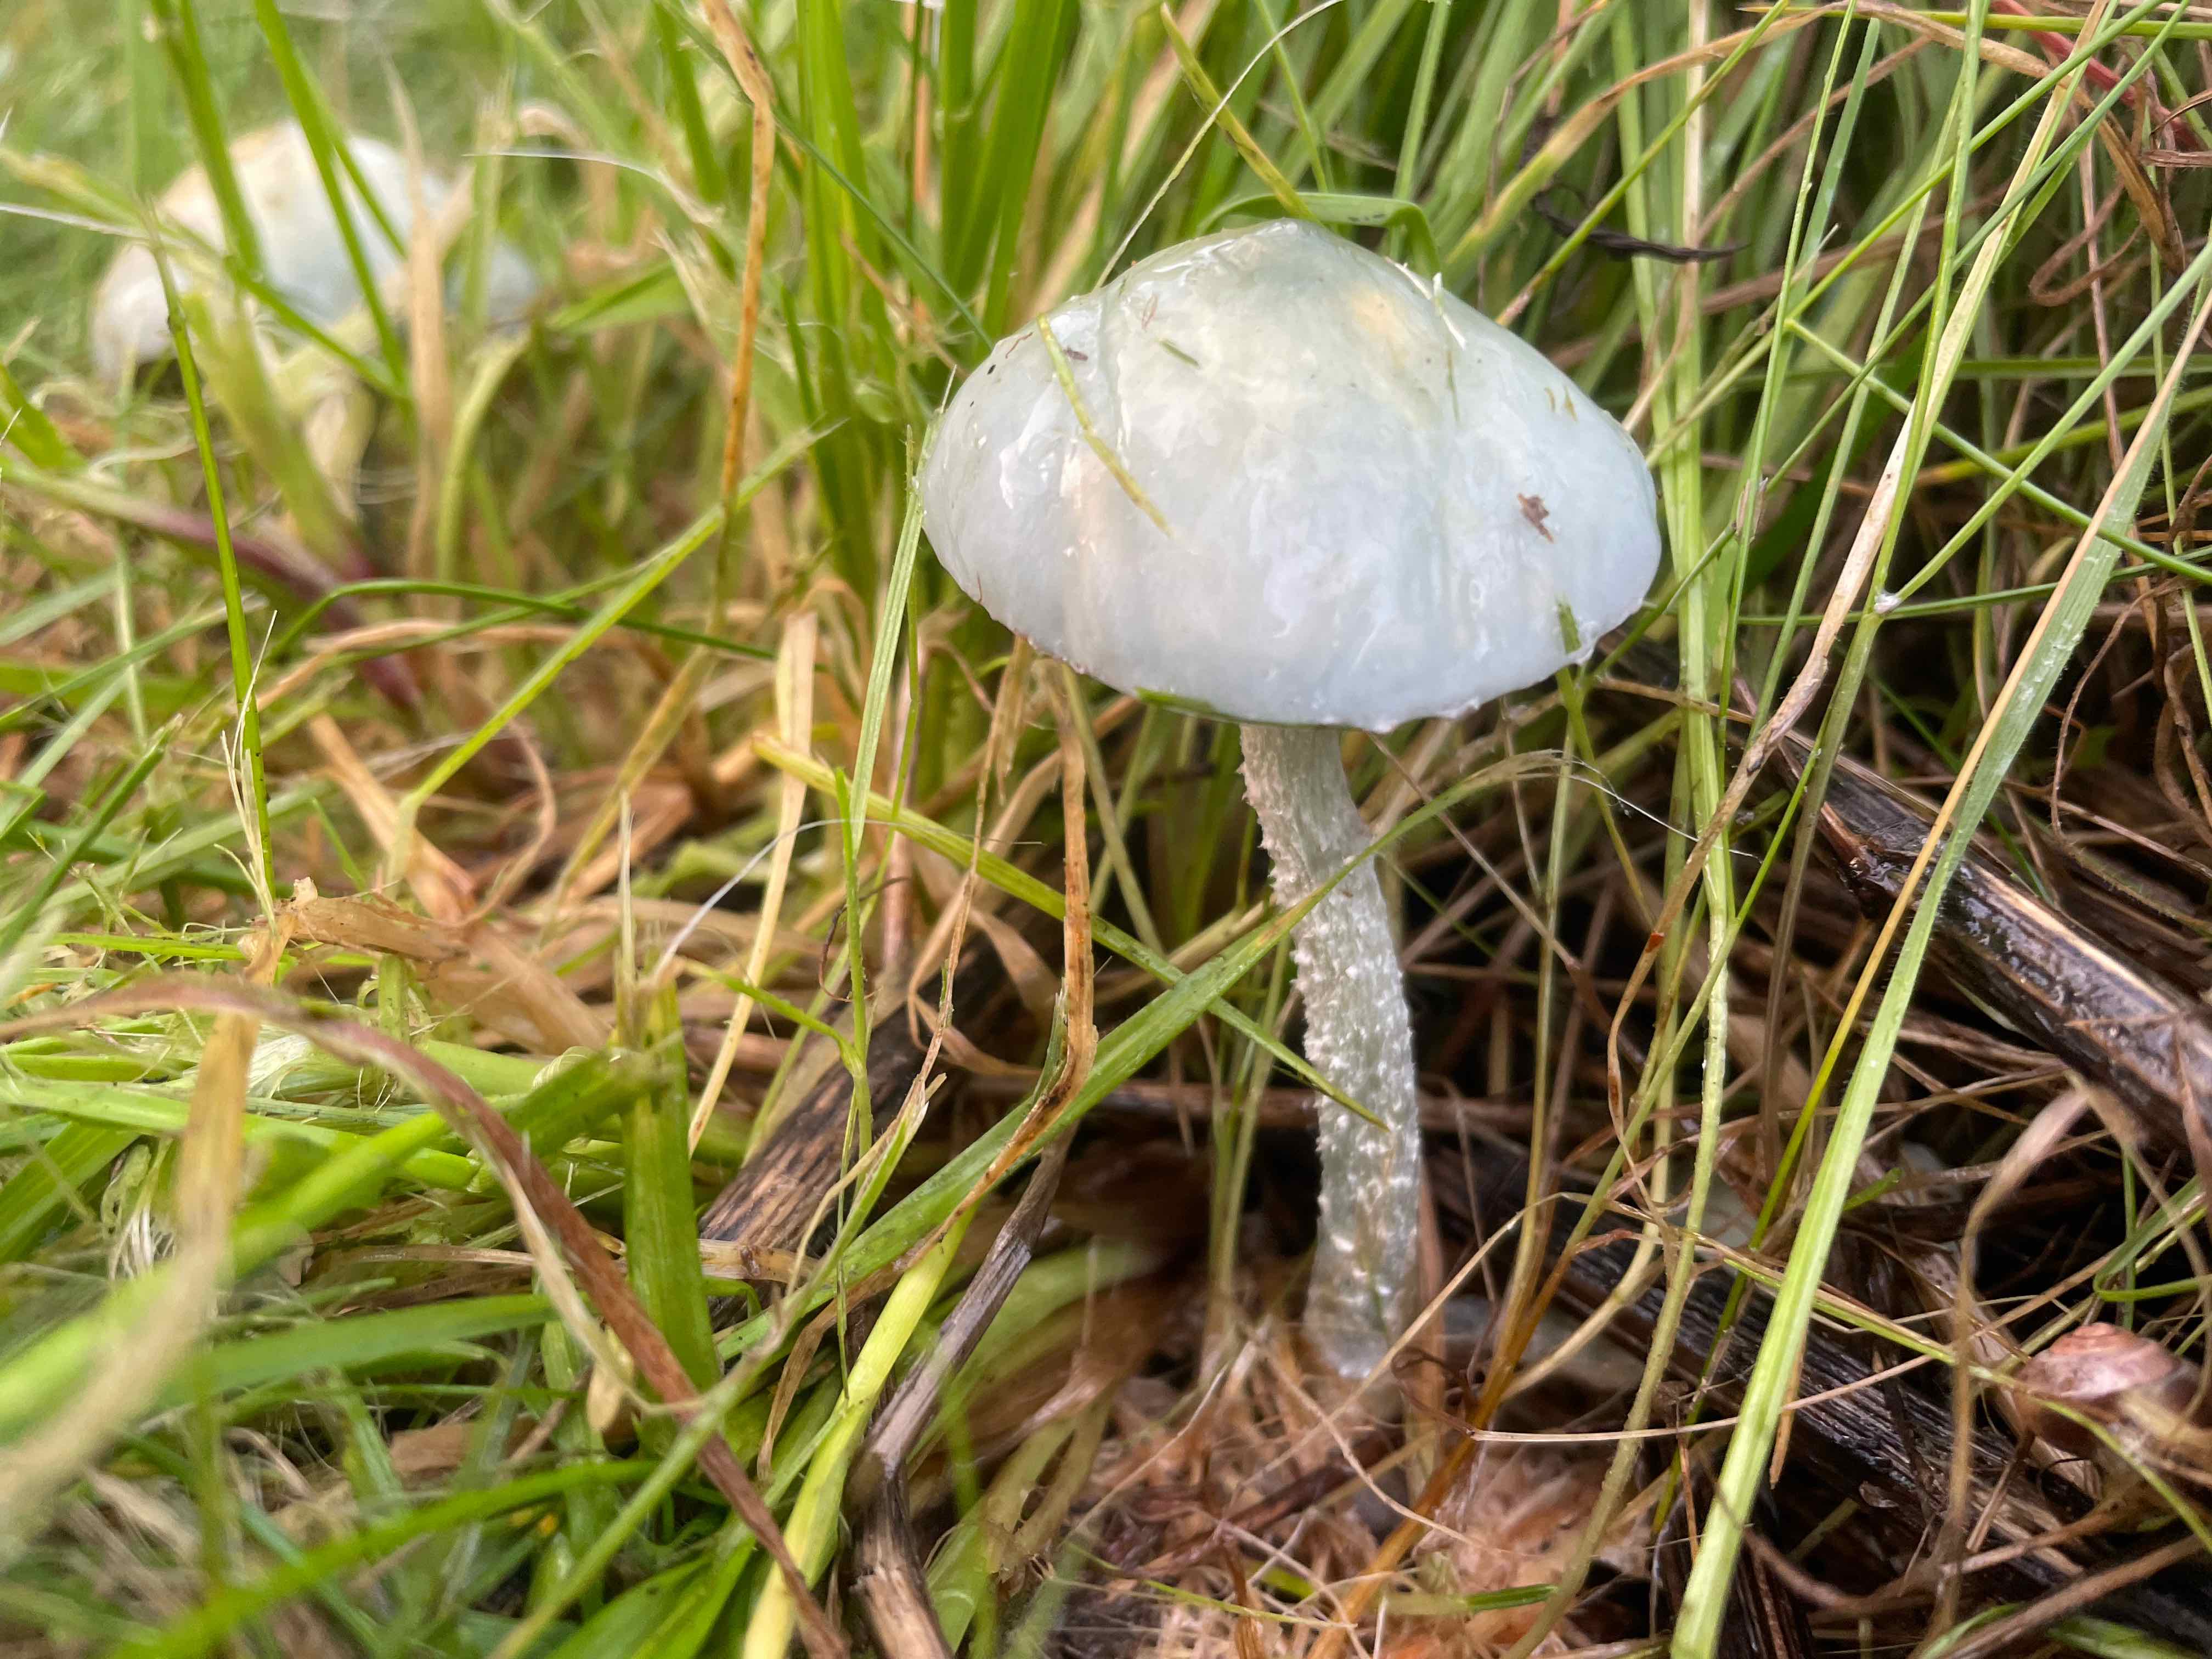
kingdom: Fungi
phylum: Basidiomycota
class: Agaricomycetes
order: Agaricales
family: Strophariaceae
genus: Stropharia
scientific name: Stropharia cyanea
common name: blågrøn bredblad
